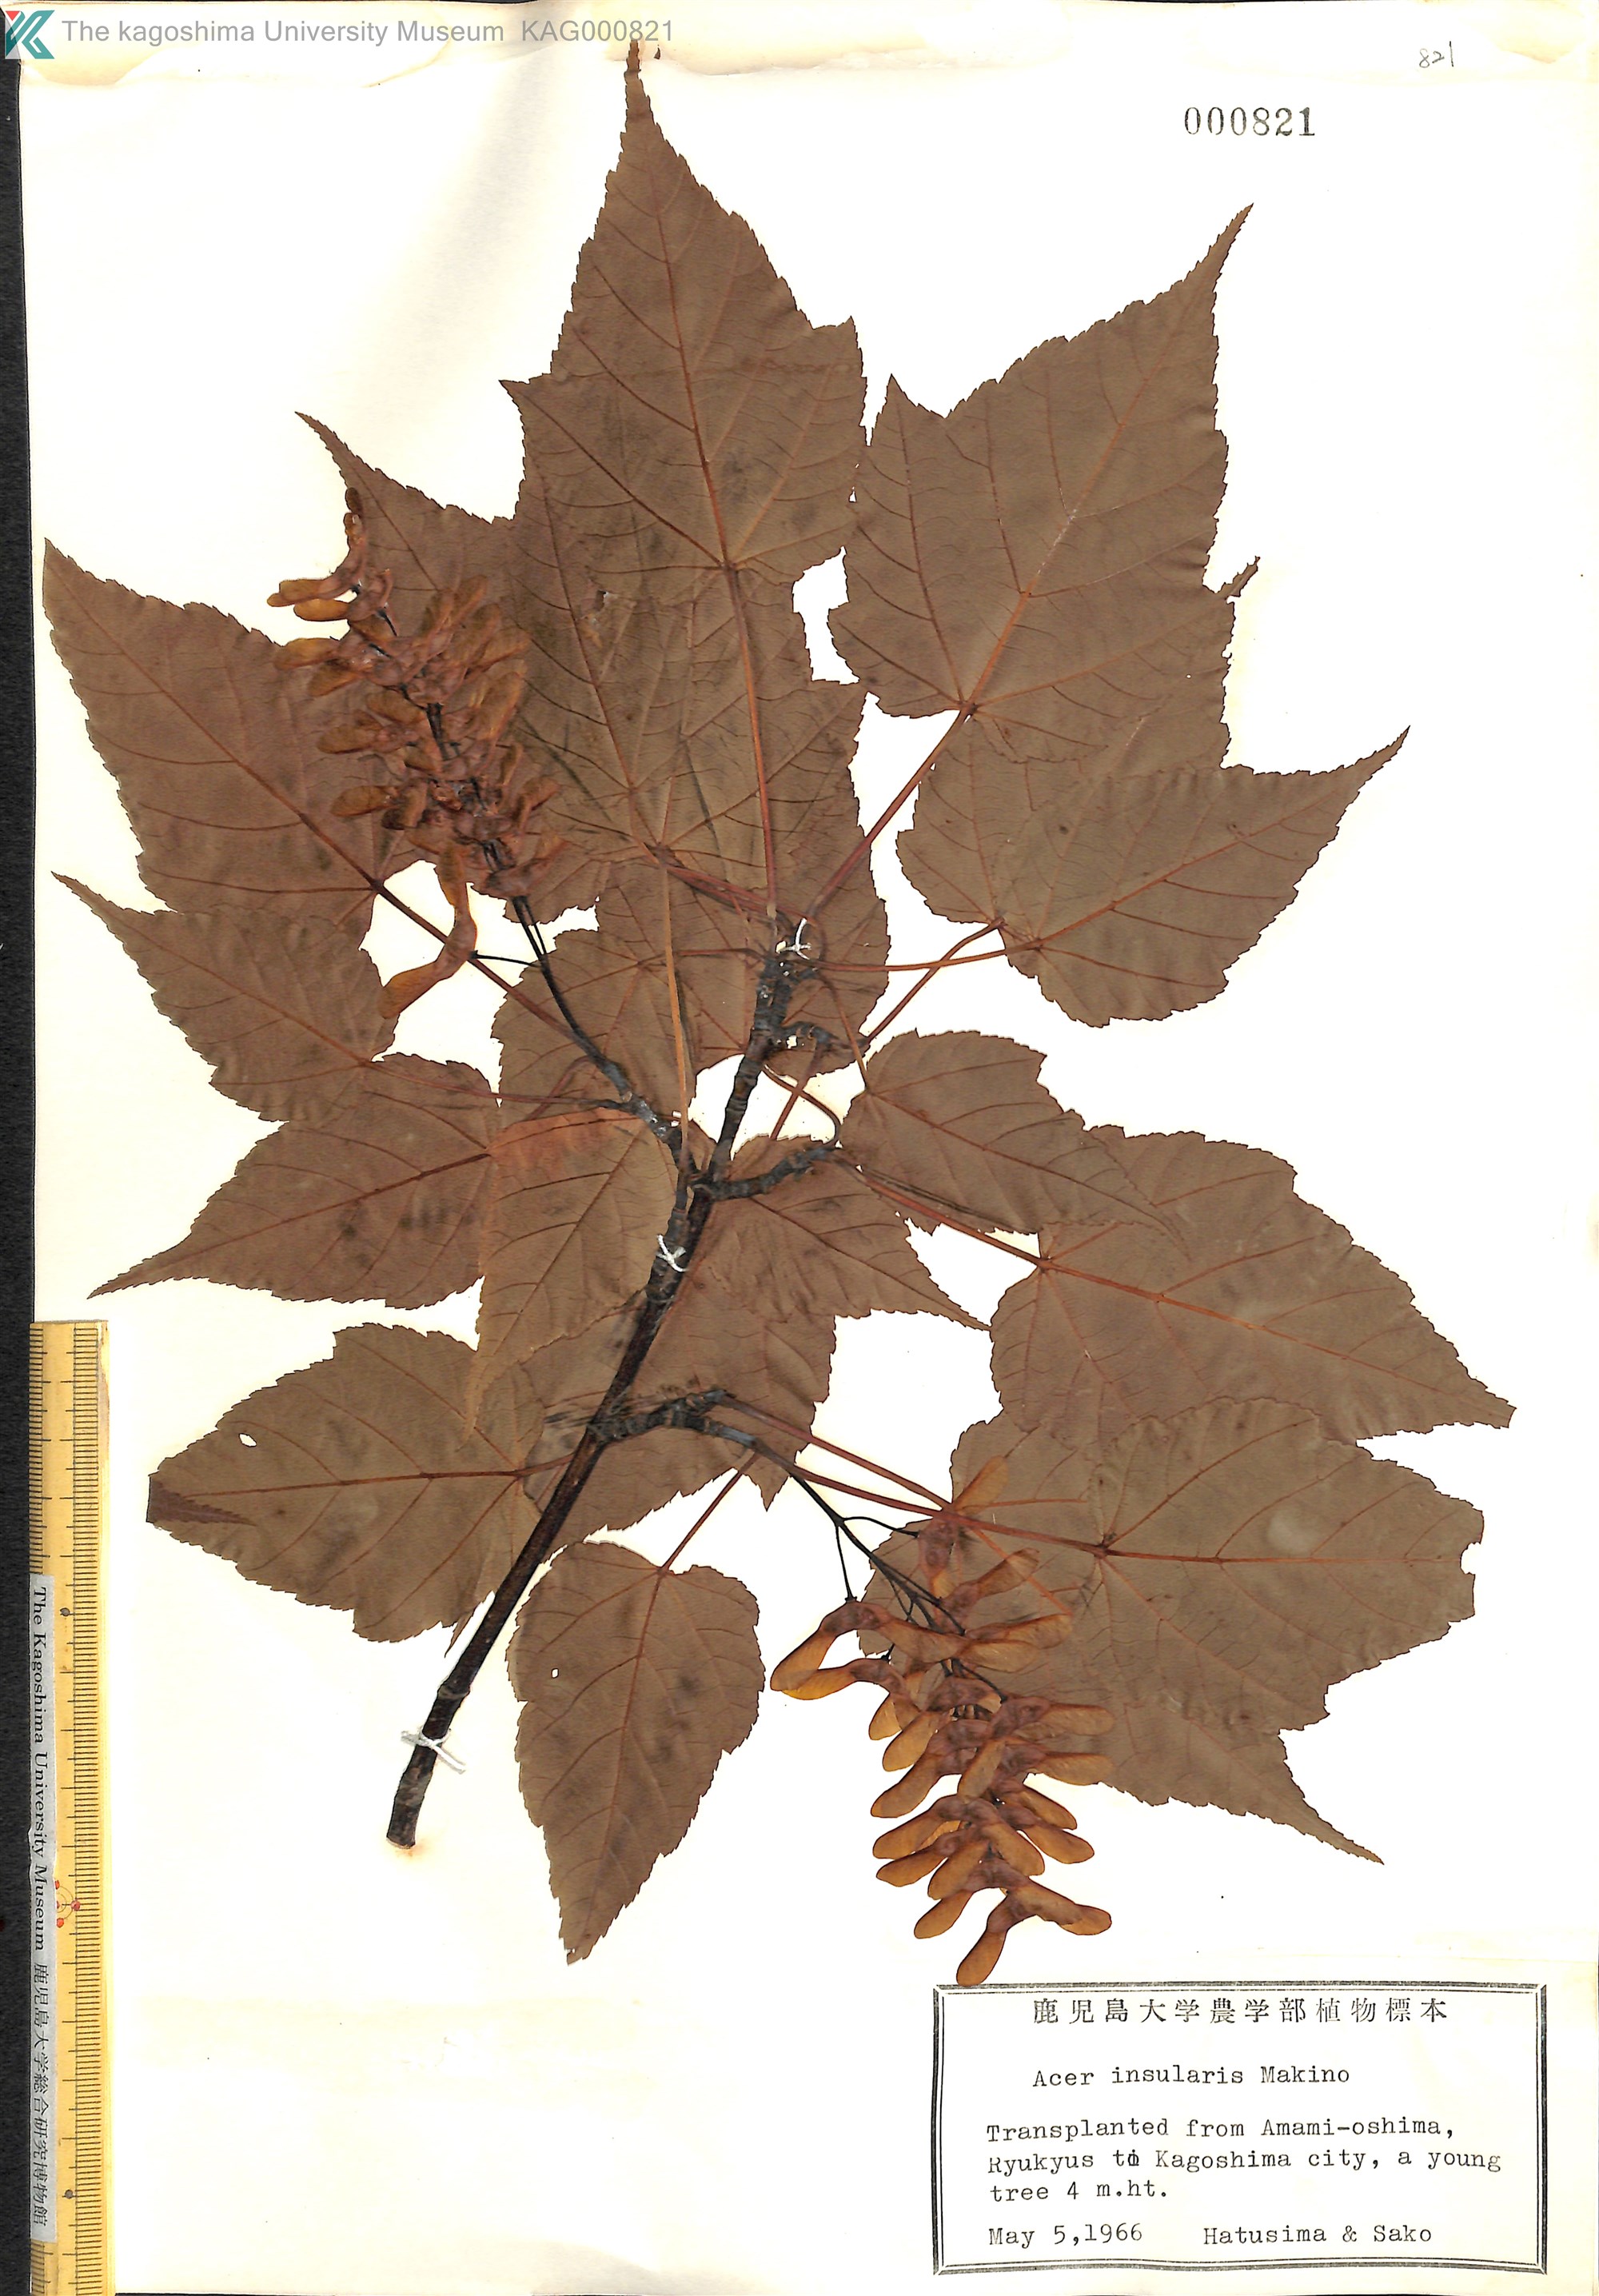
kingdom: Plantae
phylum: Tracheophyta
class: Magnoliopsida
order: Sapindales
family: Sapindaceae
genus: Acer
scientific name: Acer caudatifolium
